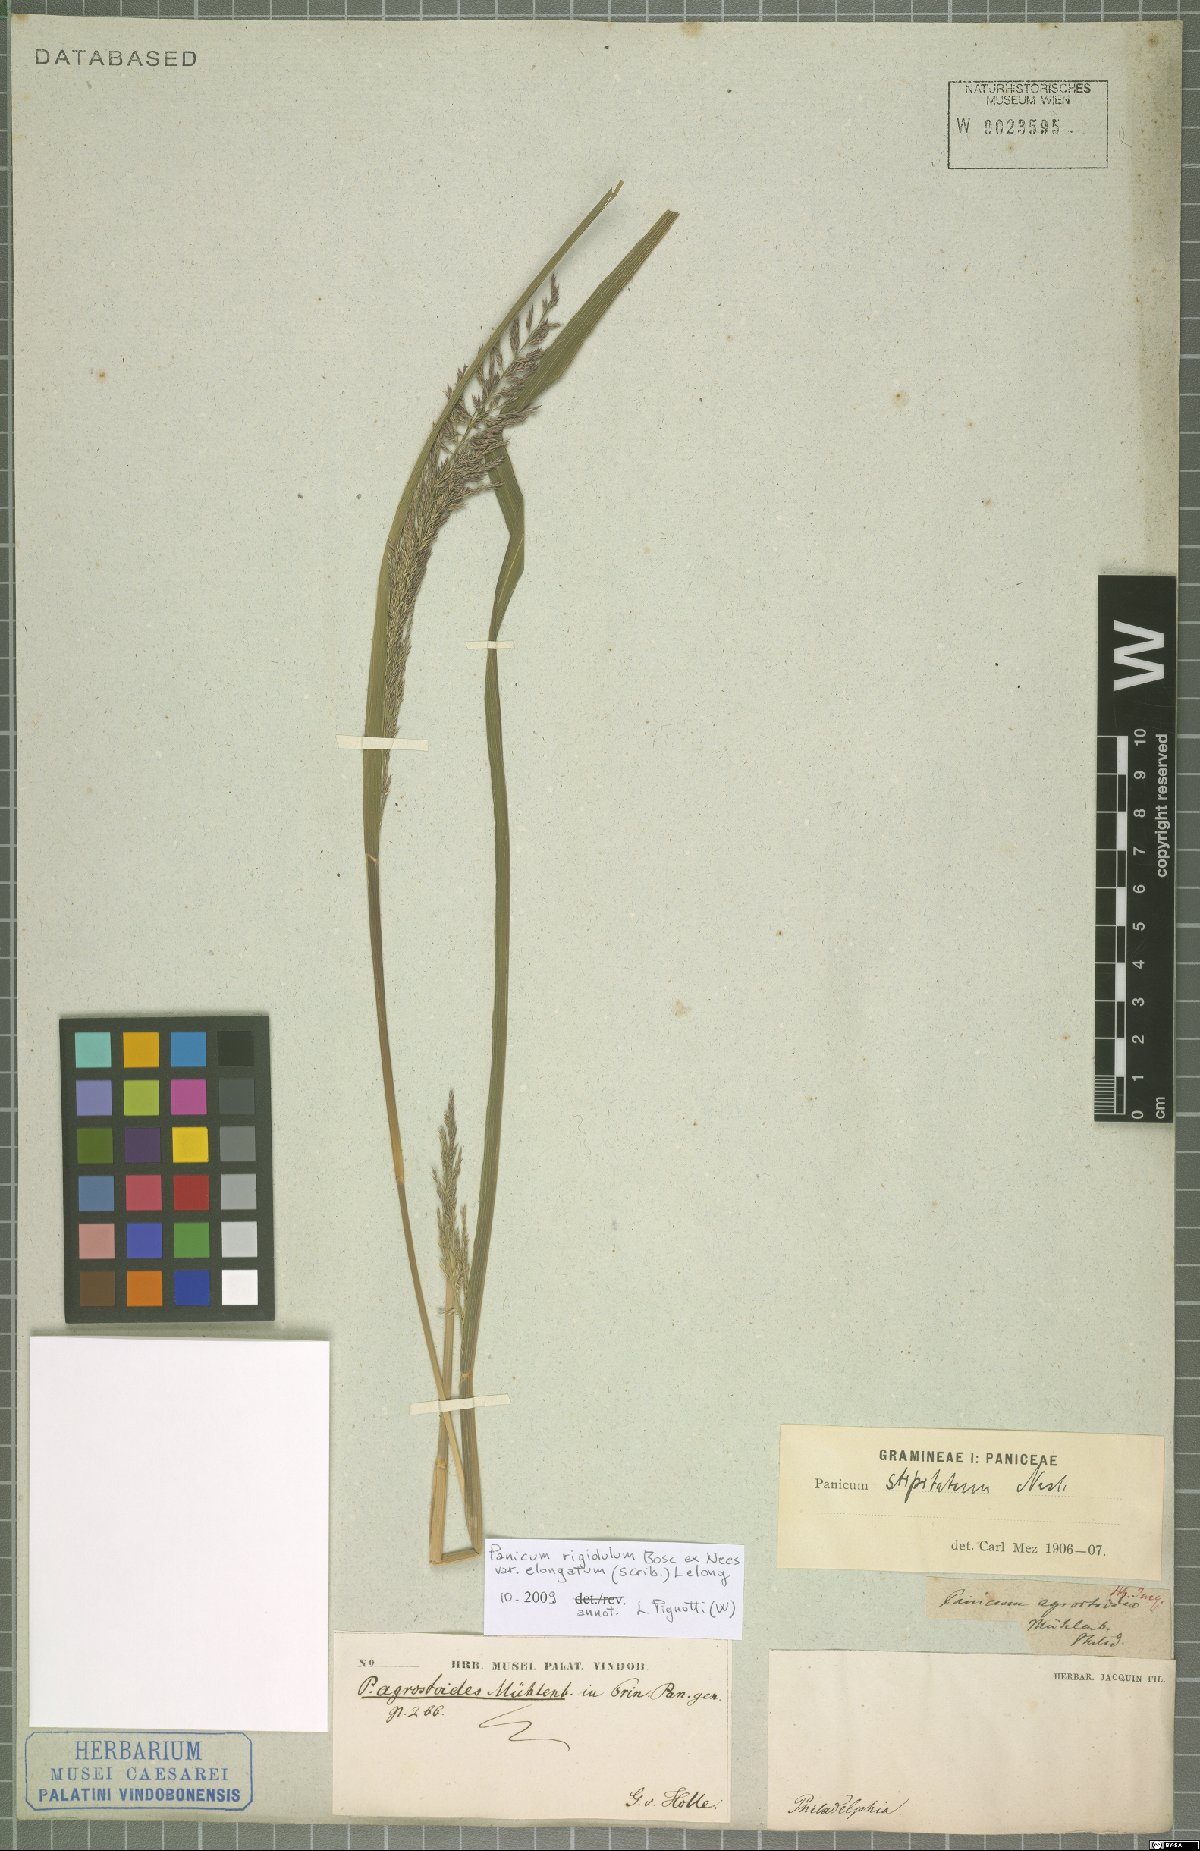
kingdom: Plantae
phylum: Tracheophyta
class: Liliopsida
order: Poales
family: Poaceae
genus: Coleataenia
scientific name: Coleataenia pulchra
